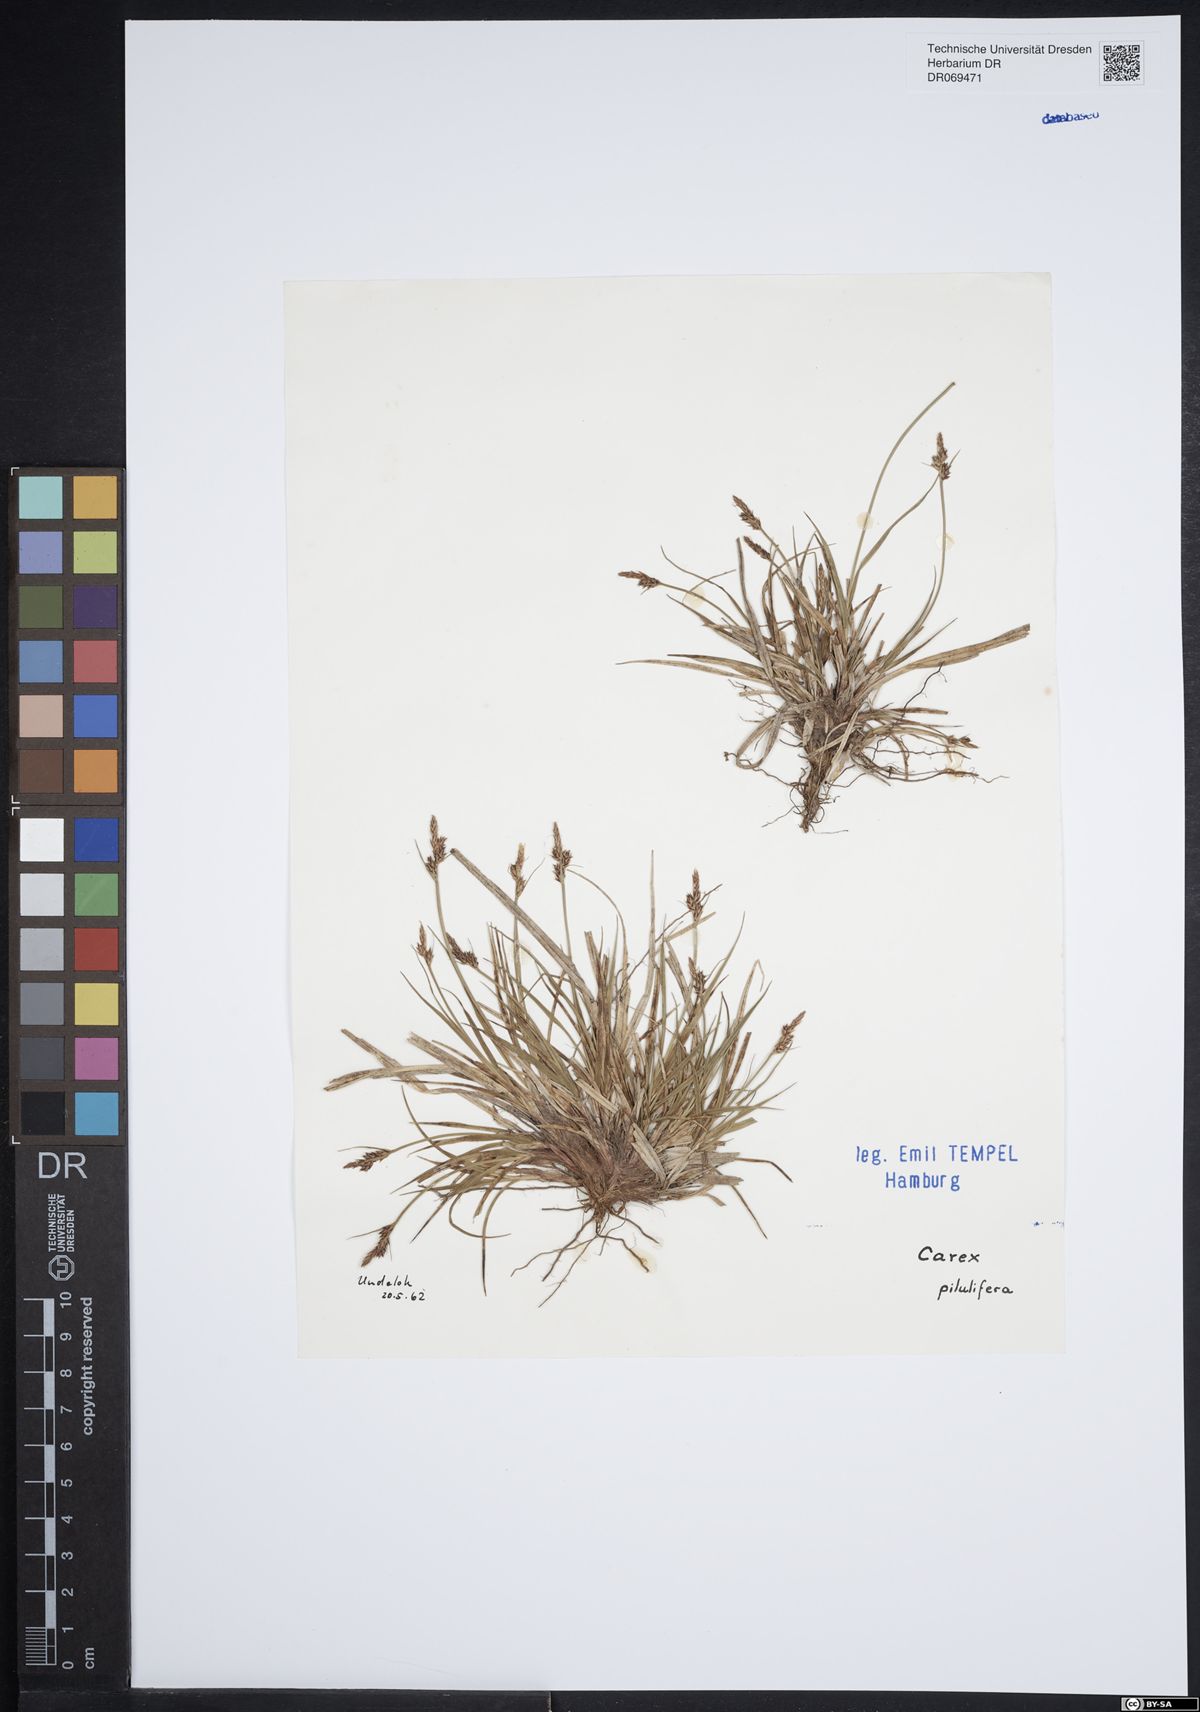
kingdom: Plantae
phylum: Tracheophyta
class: Liliopsida
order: Poales
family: Cyperaceae
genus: Carex
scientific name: Carex pilulifera
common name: Pill sedge
